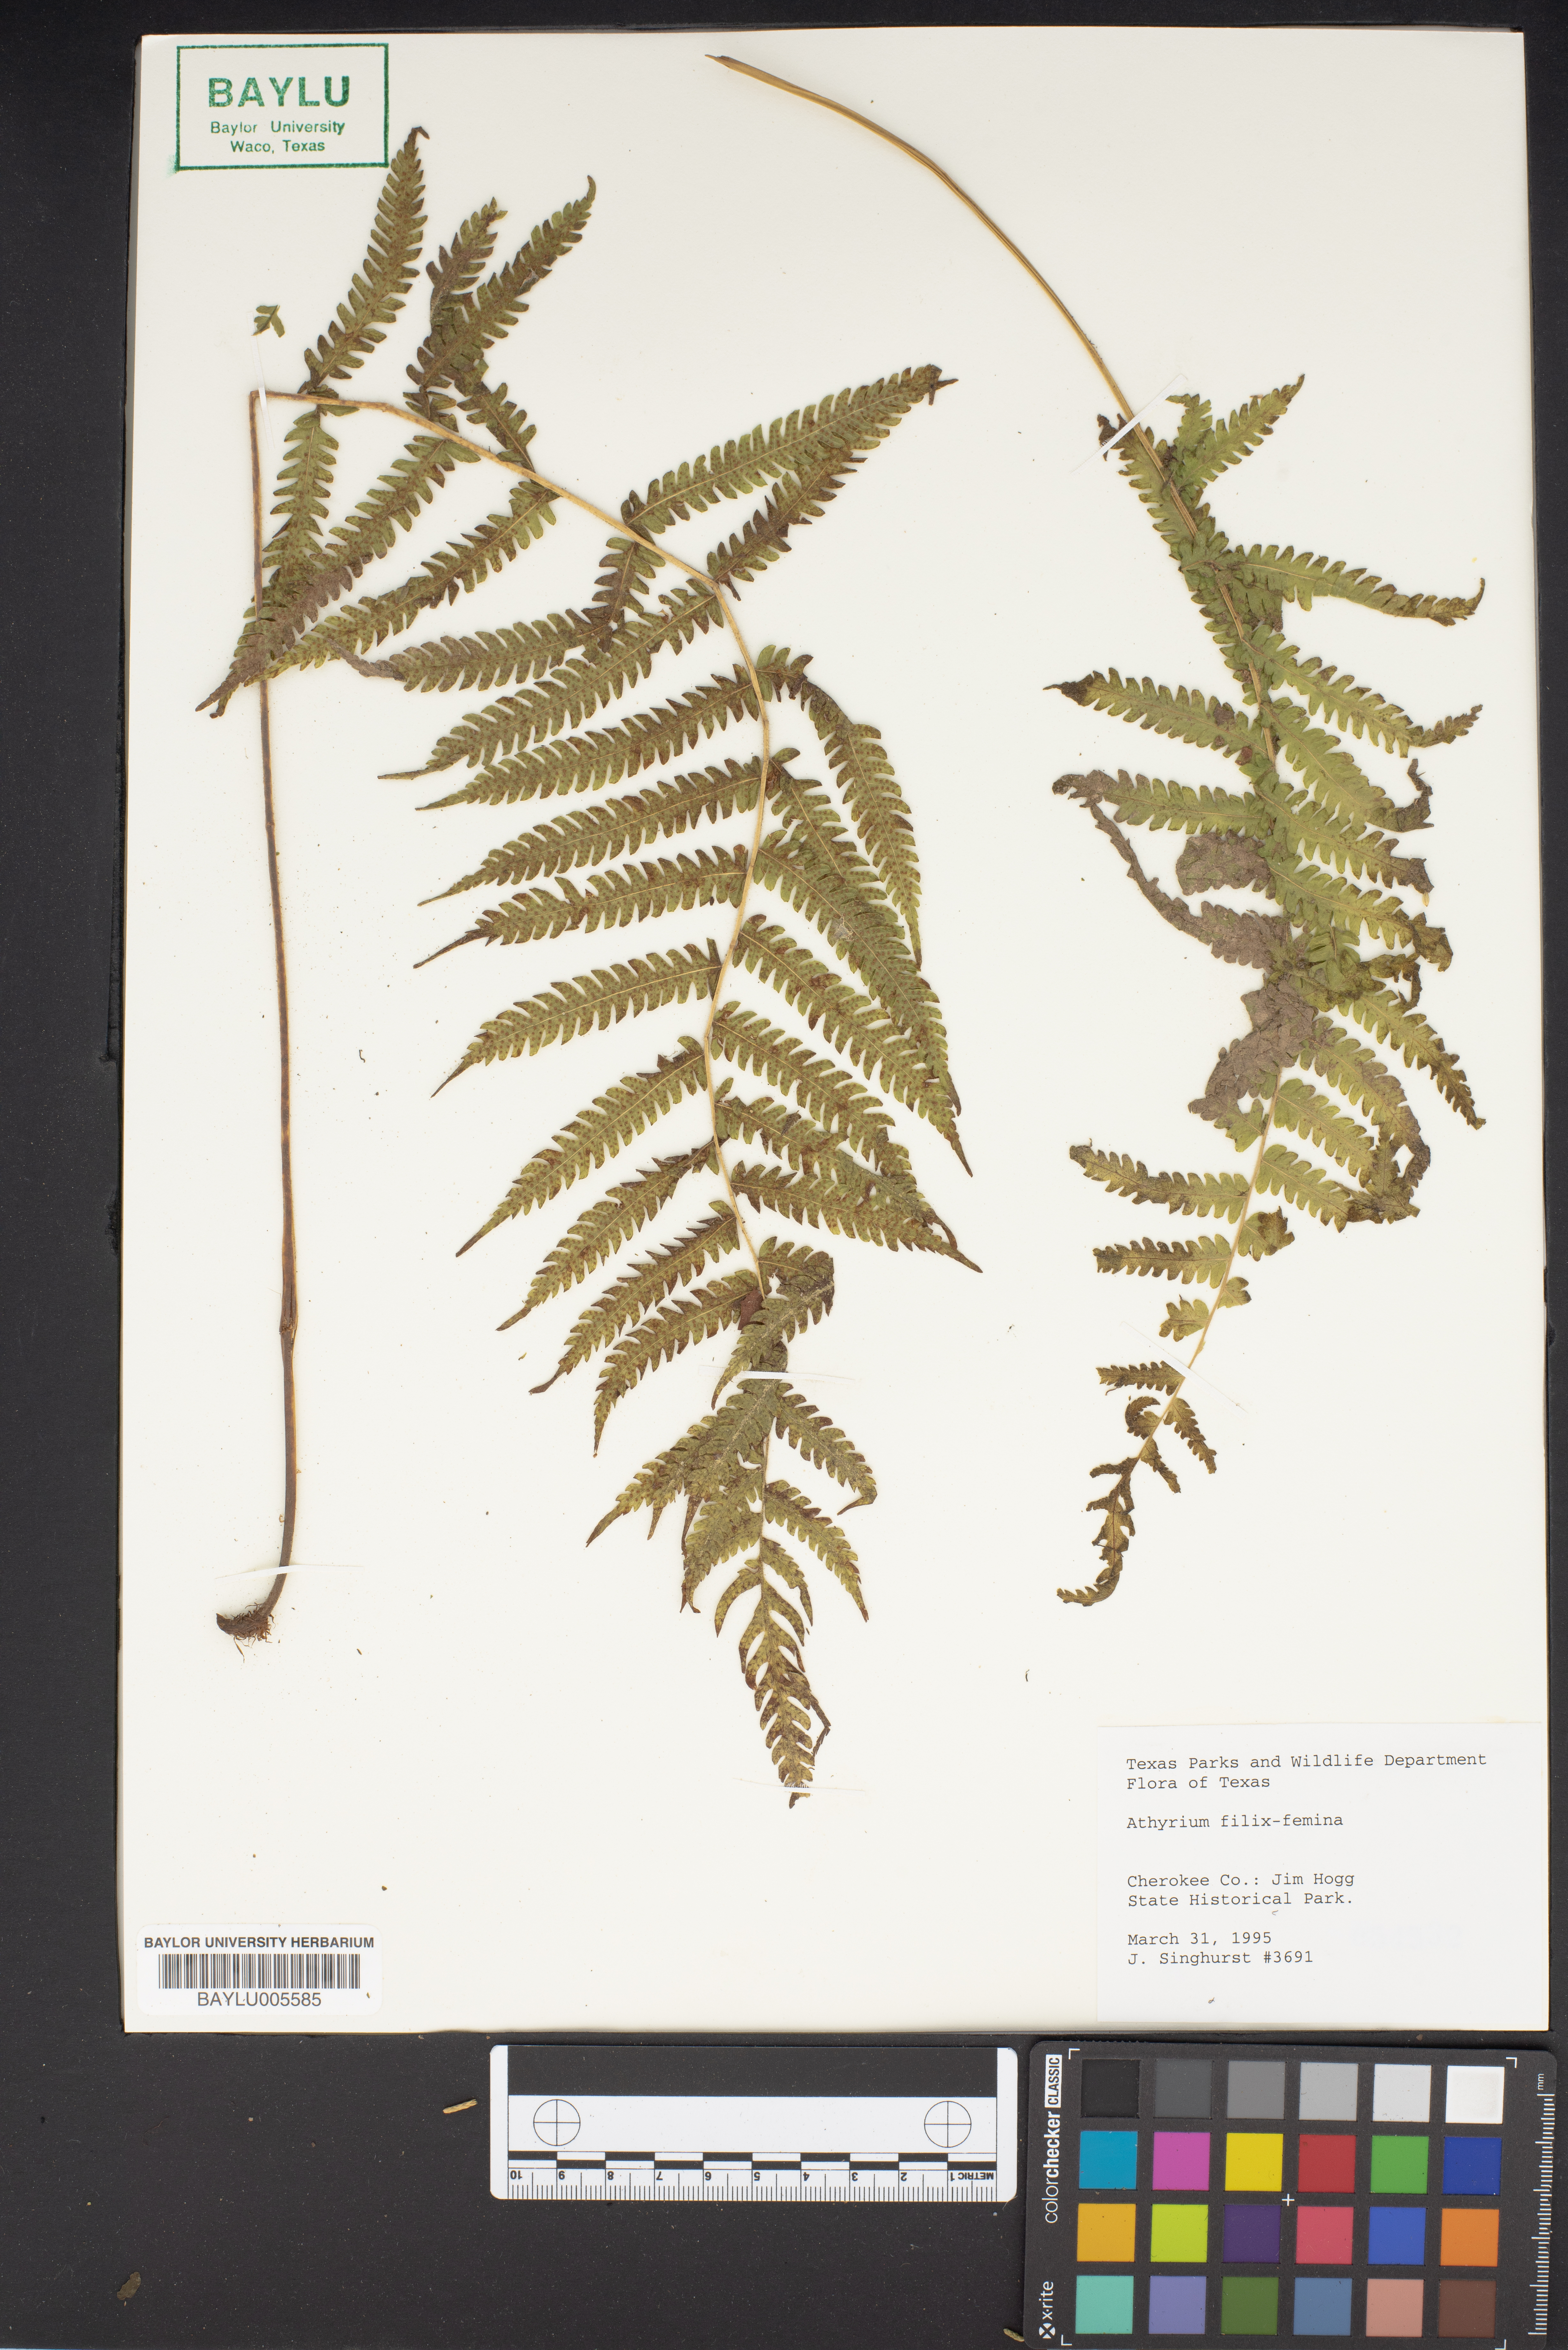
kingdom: Plantae
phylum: Tracheophyta
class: Polypodiopsida
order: Polypodiales
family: Athyriaceae
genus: Athyrium
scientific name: Athyrium filix-femina
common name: Lady fern
